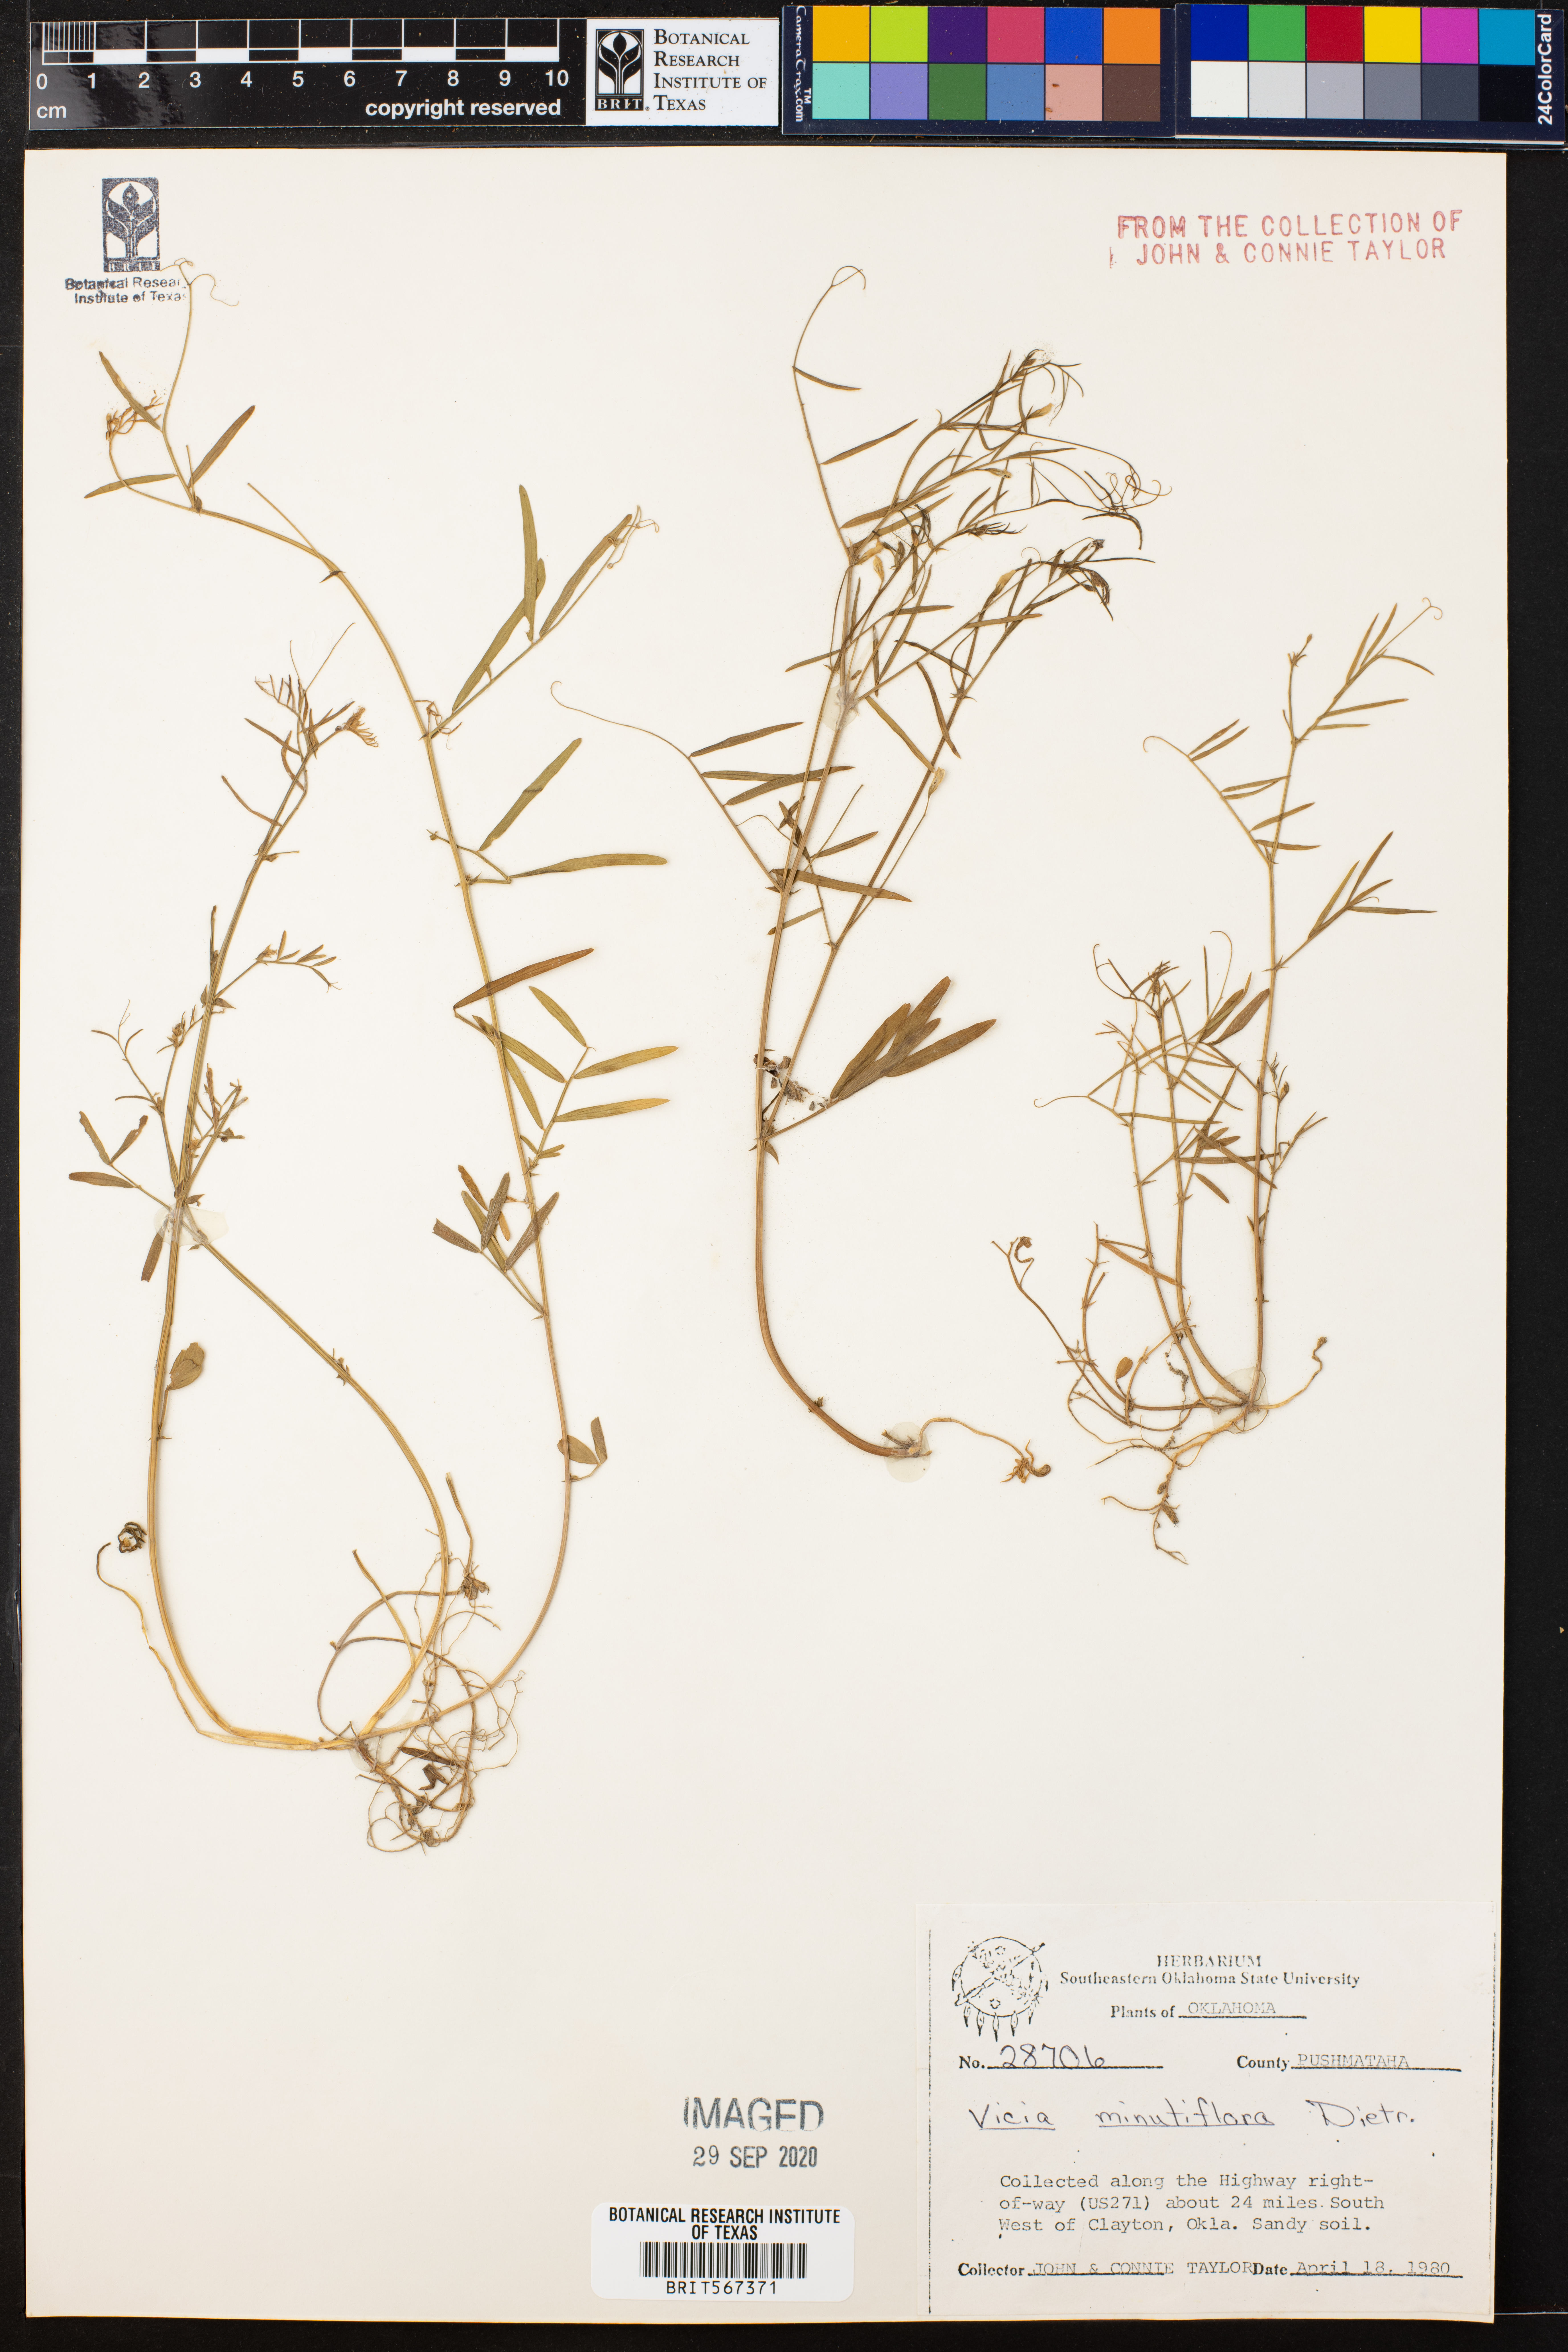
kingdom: Plantae
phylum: Tracheophyta
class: Magnoliopsida
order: Fabales
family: Fabaceae
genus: Vicia
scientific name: Vicia minutiflora
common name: Pygmy-flower vetch
